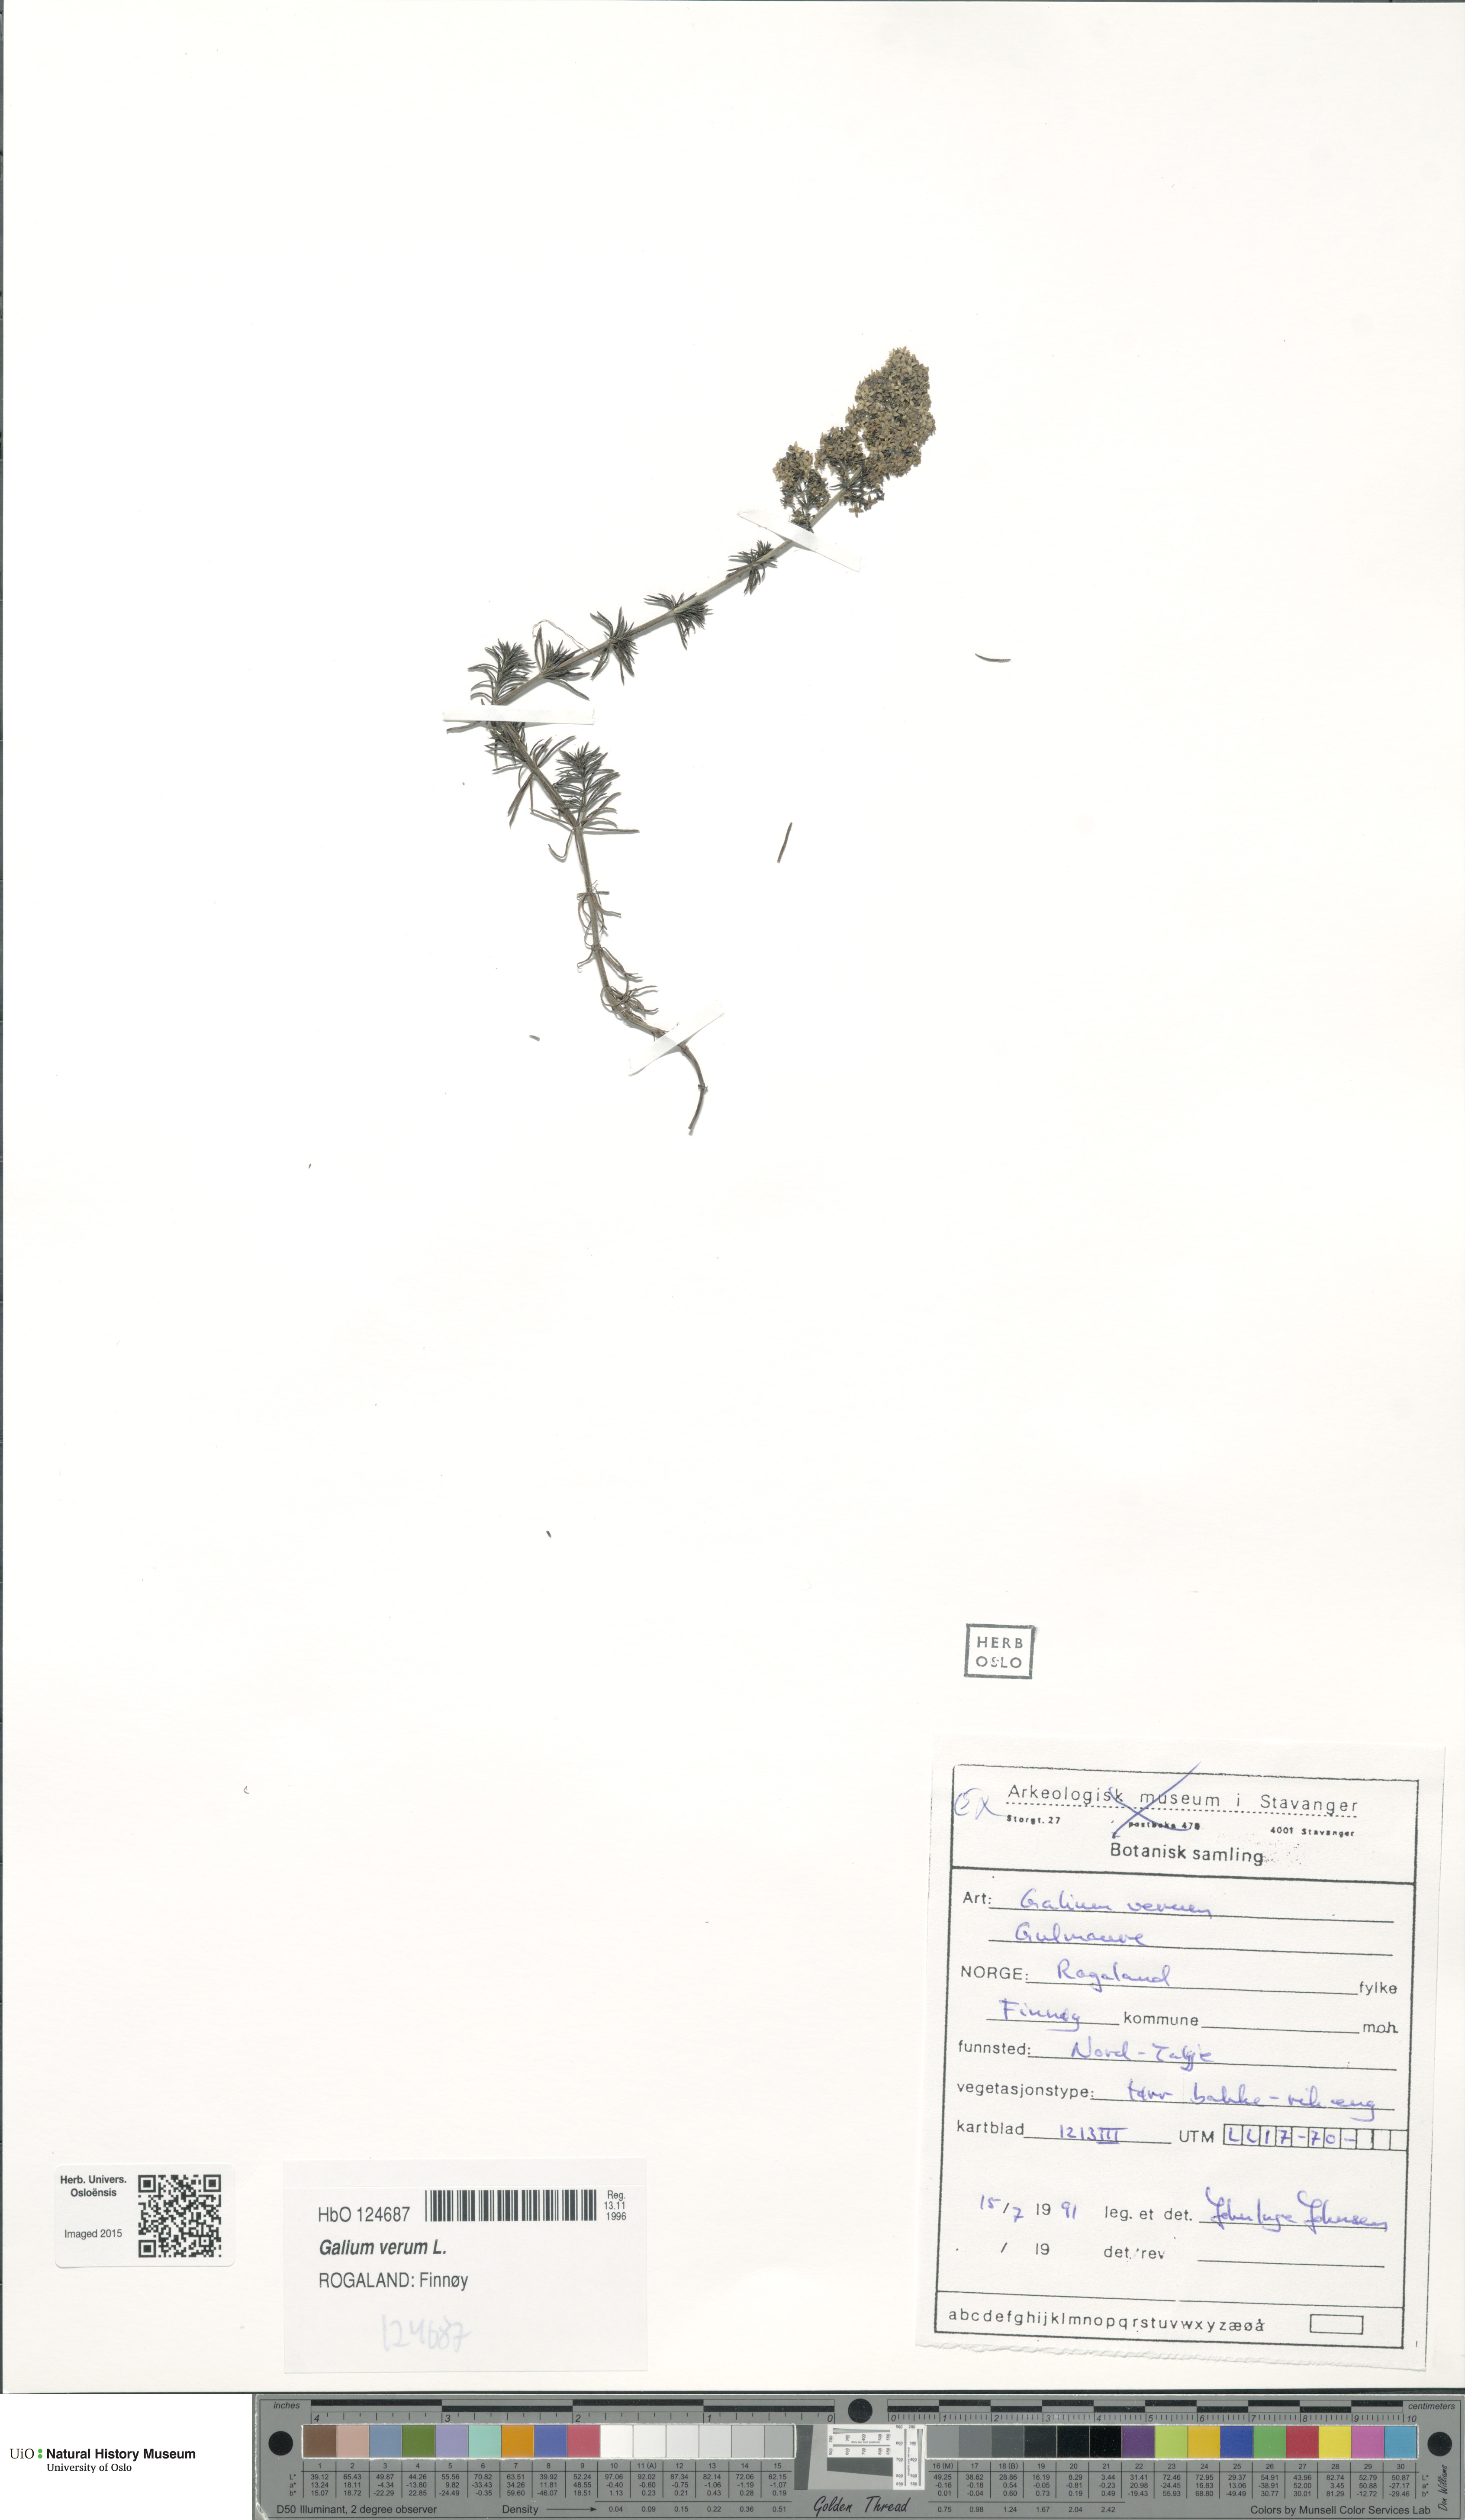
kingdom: Plantae
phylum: Tracheophyta
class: Magnoliopsida
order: Gentianales
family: Rubiaceae
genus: Galium
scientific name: Galium verum
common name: Lady's bedstraw
